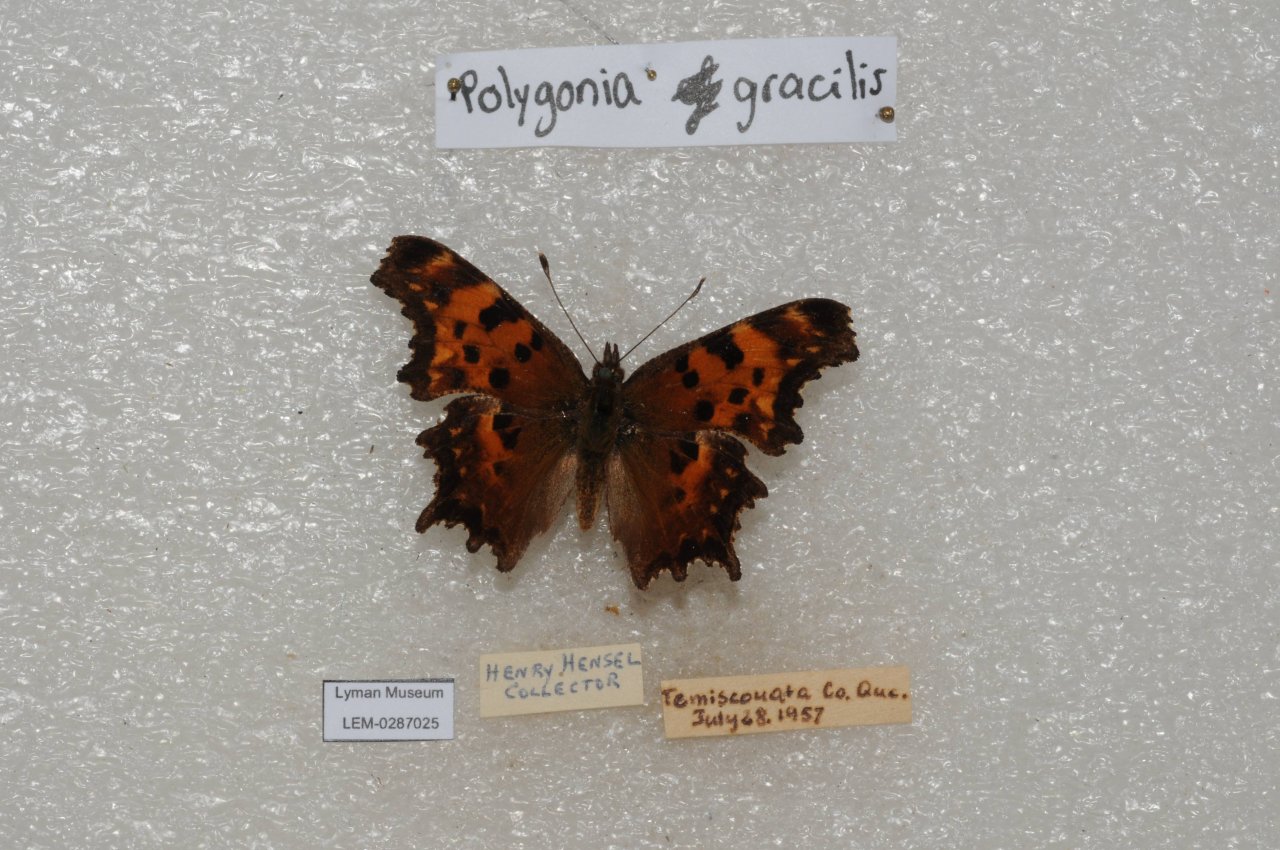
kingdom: Animalia
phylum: Arthropoda
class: Insecta
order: Lepidoptera
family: Nymphalidae
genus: Polygonia
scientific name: Polygonia gracilis
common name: Hoary Comma
